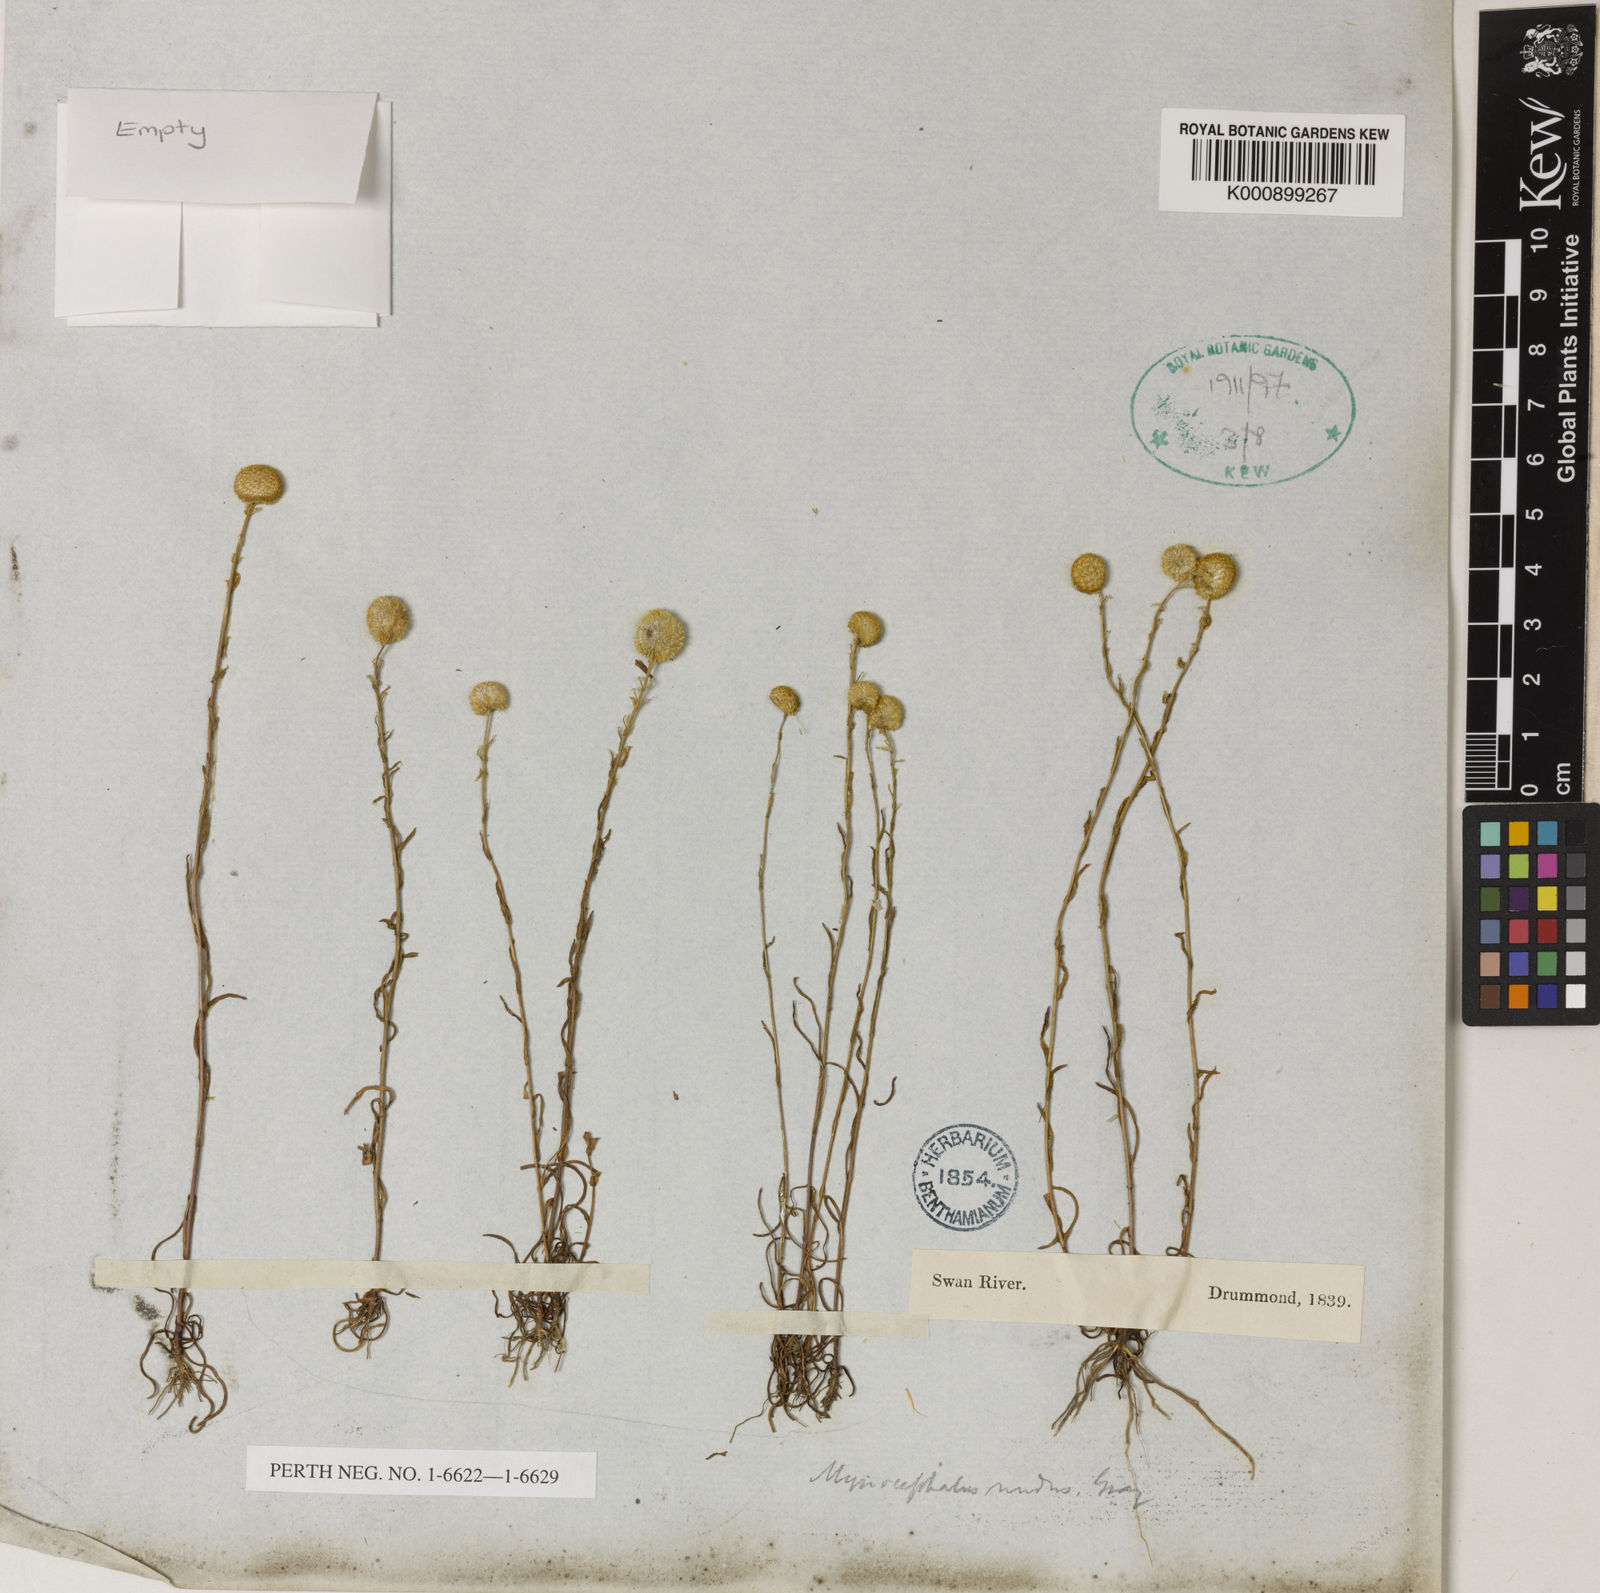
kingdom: Plantae
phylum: Tracheophyta
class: Magnoliopsida
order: Asterales
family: Asteraceae
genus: Myriocephalus
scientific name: Myriocephalus nudus
